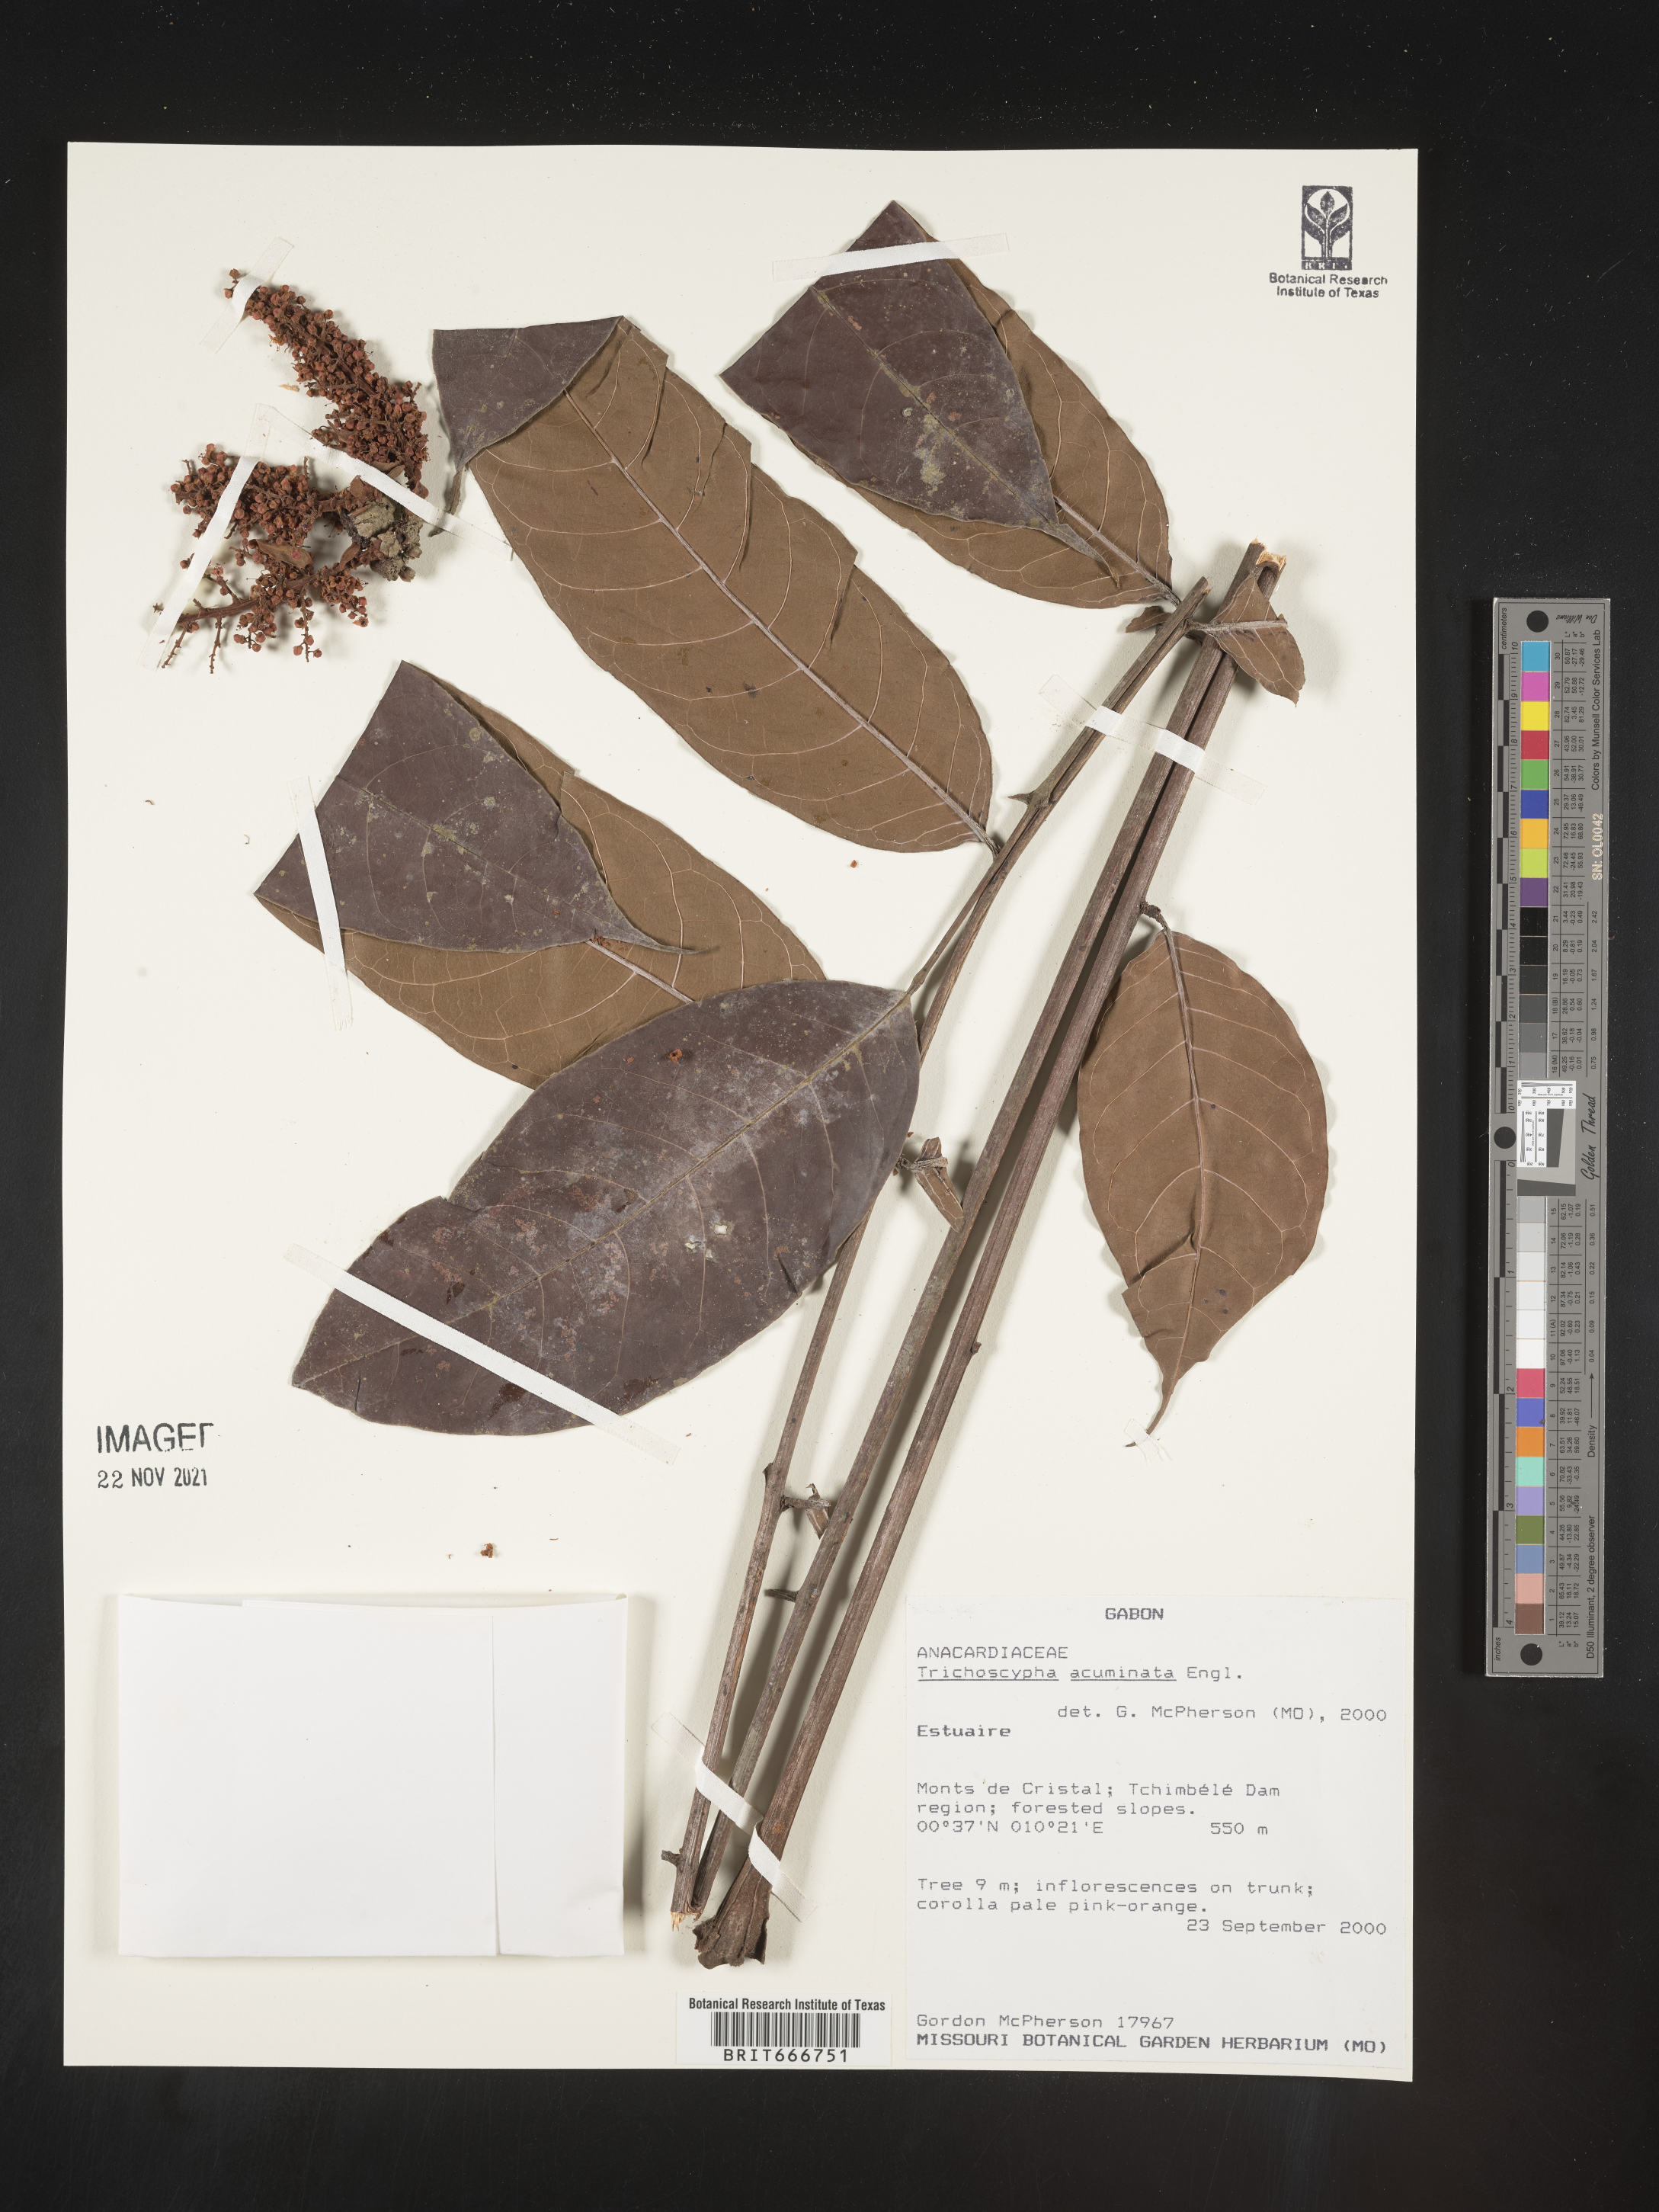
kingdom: Plantae
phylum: Tracheophyta
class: Magnoliopsida
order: Sapindales
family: Anacardiaceae
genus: Trichoscypha
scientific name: Trichoscypha
